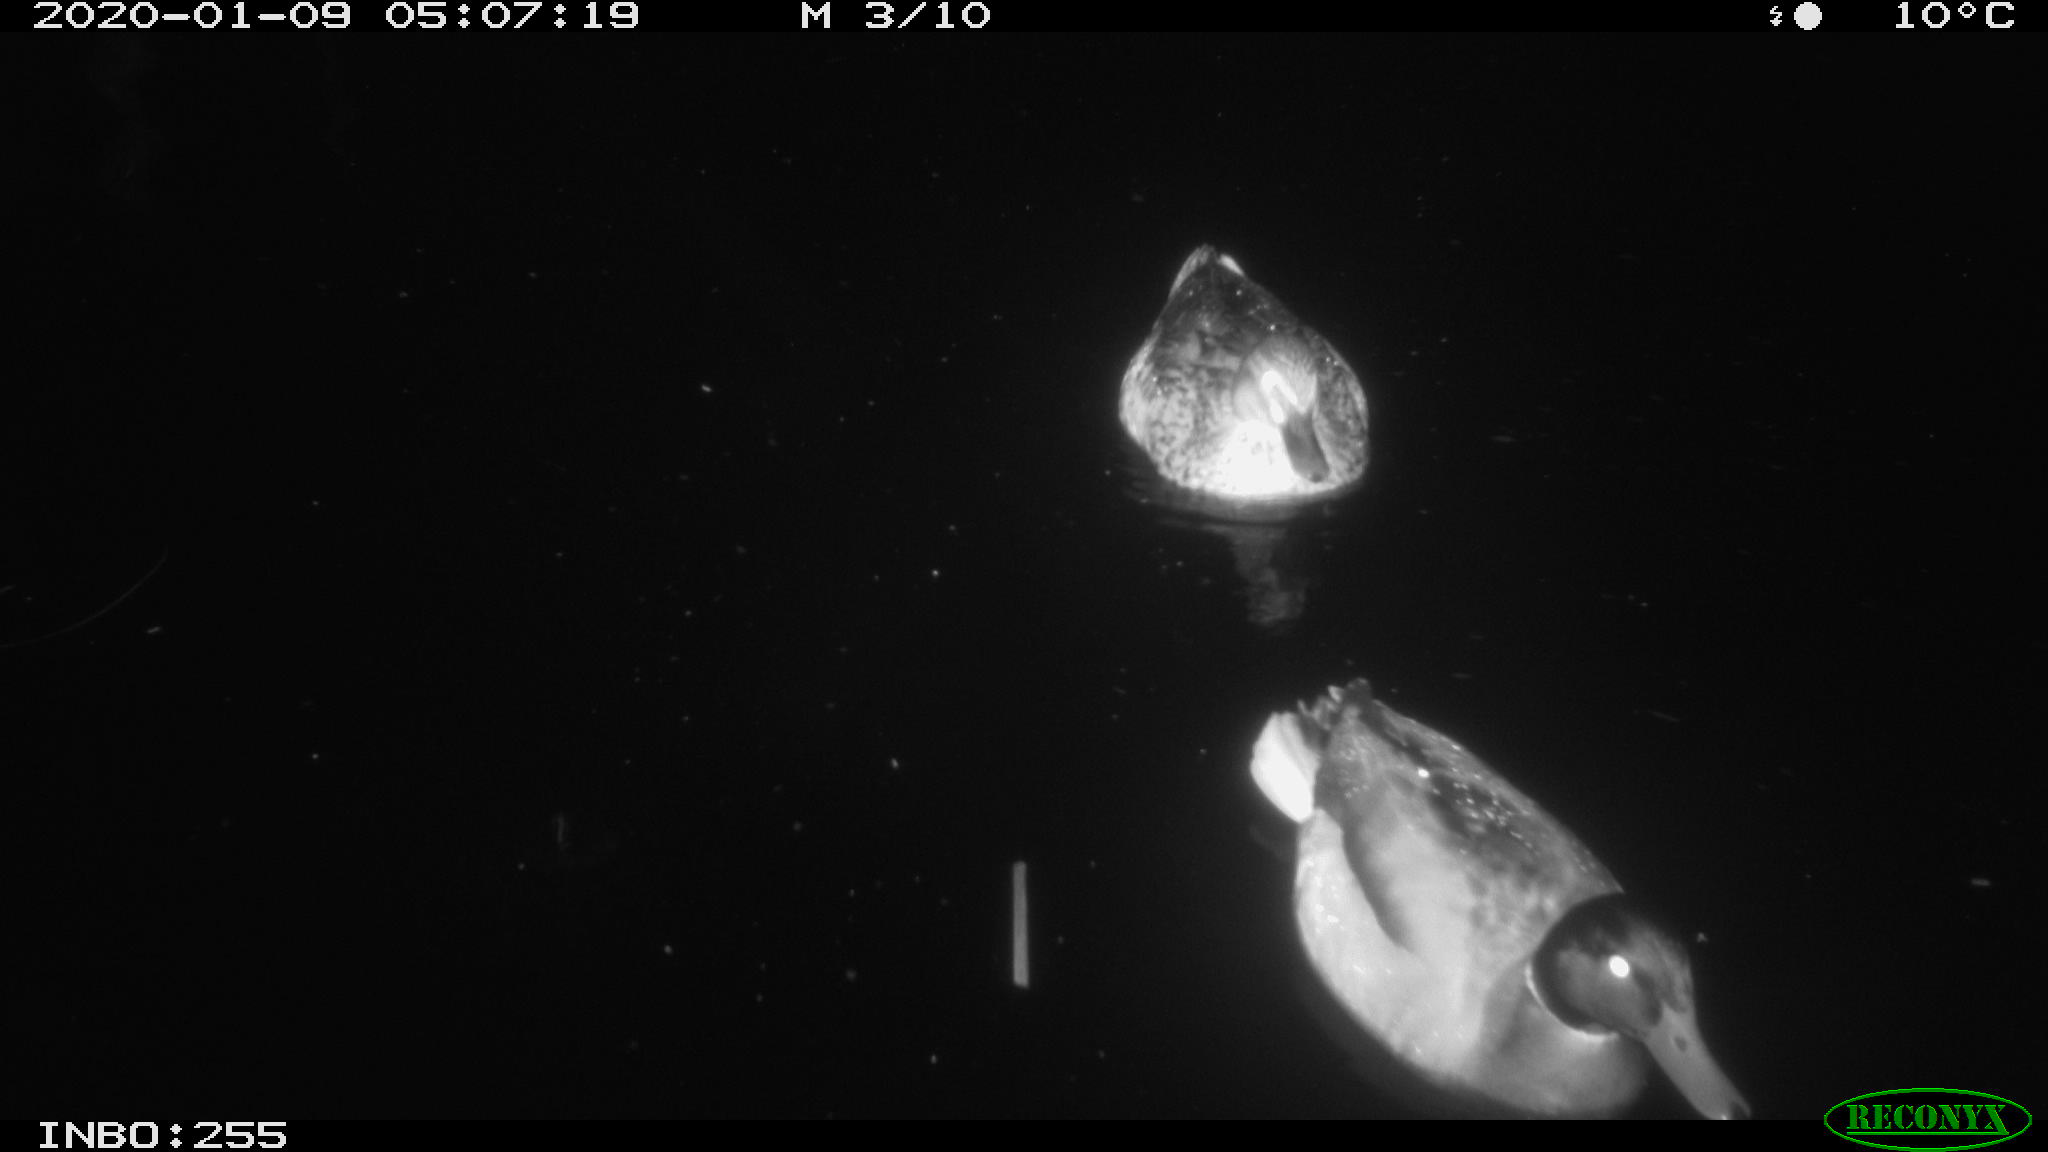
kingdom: Animalia
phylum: Chordata
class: Aves
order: Anseriformes
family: Anatidae
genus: Anas
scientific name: Anas platyrhynchos
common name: Mallard
